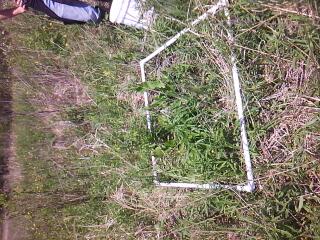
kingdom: Plantae
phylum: Tracheophyta
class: Magnoliopsida
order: Asterales
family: Asteraceae
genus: Solidago
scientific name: Solidago canadensis
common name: Canada goldenrod
